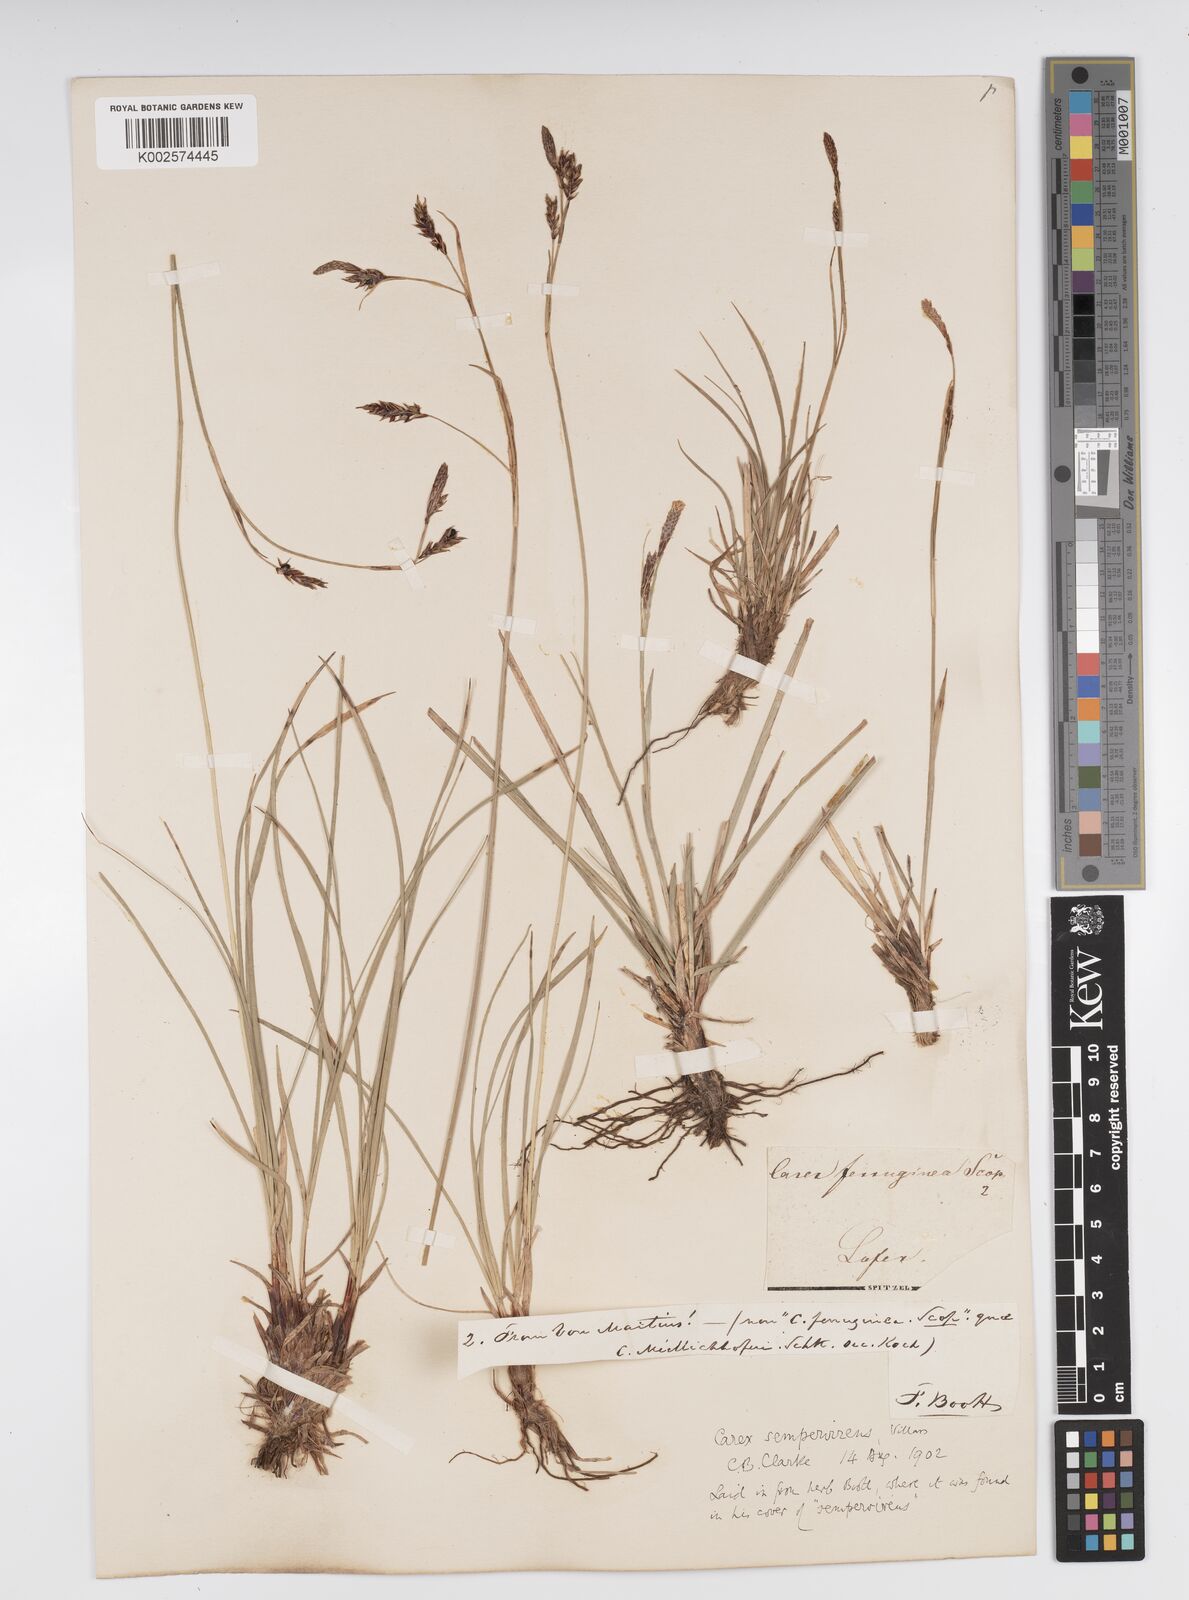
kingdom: Plantae
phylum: Tracheophyta
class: Liliopsida
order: Poales
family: Cyperaceae
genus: Carex
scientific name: Carex sempervirens
